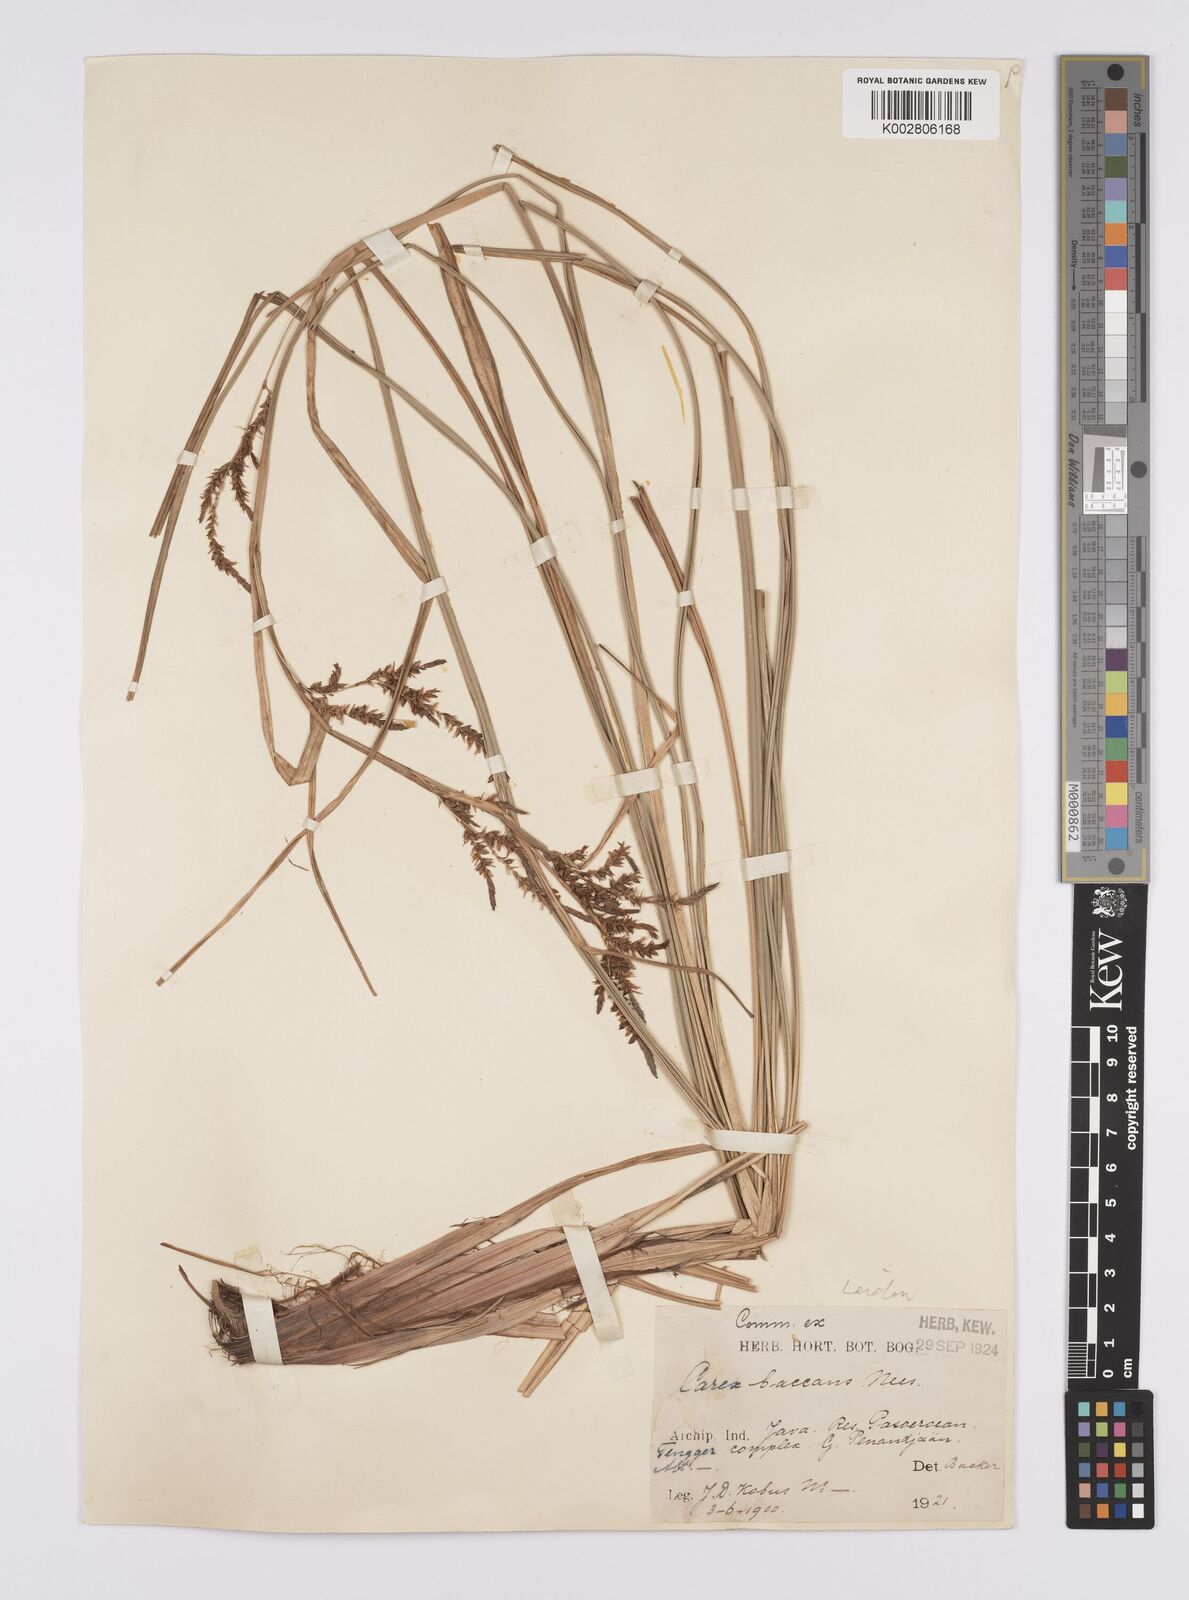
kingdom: Plantae
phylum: Tracheophyta
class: Liliopsida
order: Poales
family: Cyperaceae
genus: Carex
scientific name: Carex baccans
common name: Crimson seeded sedge
